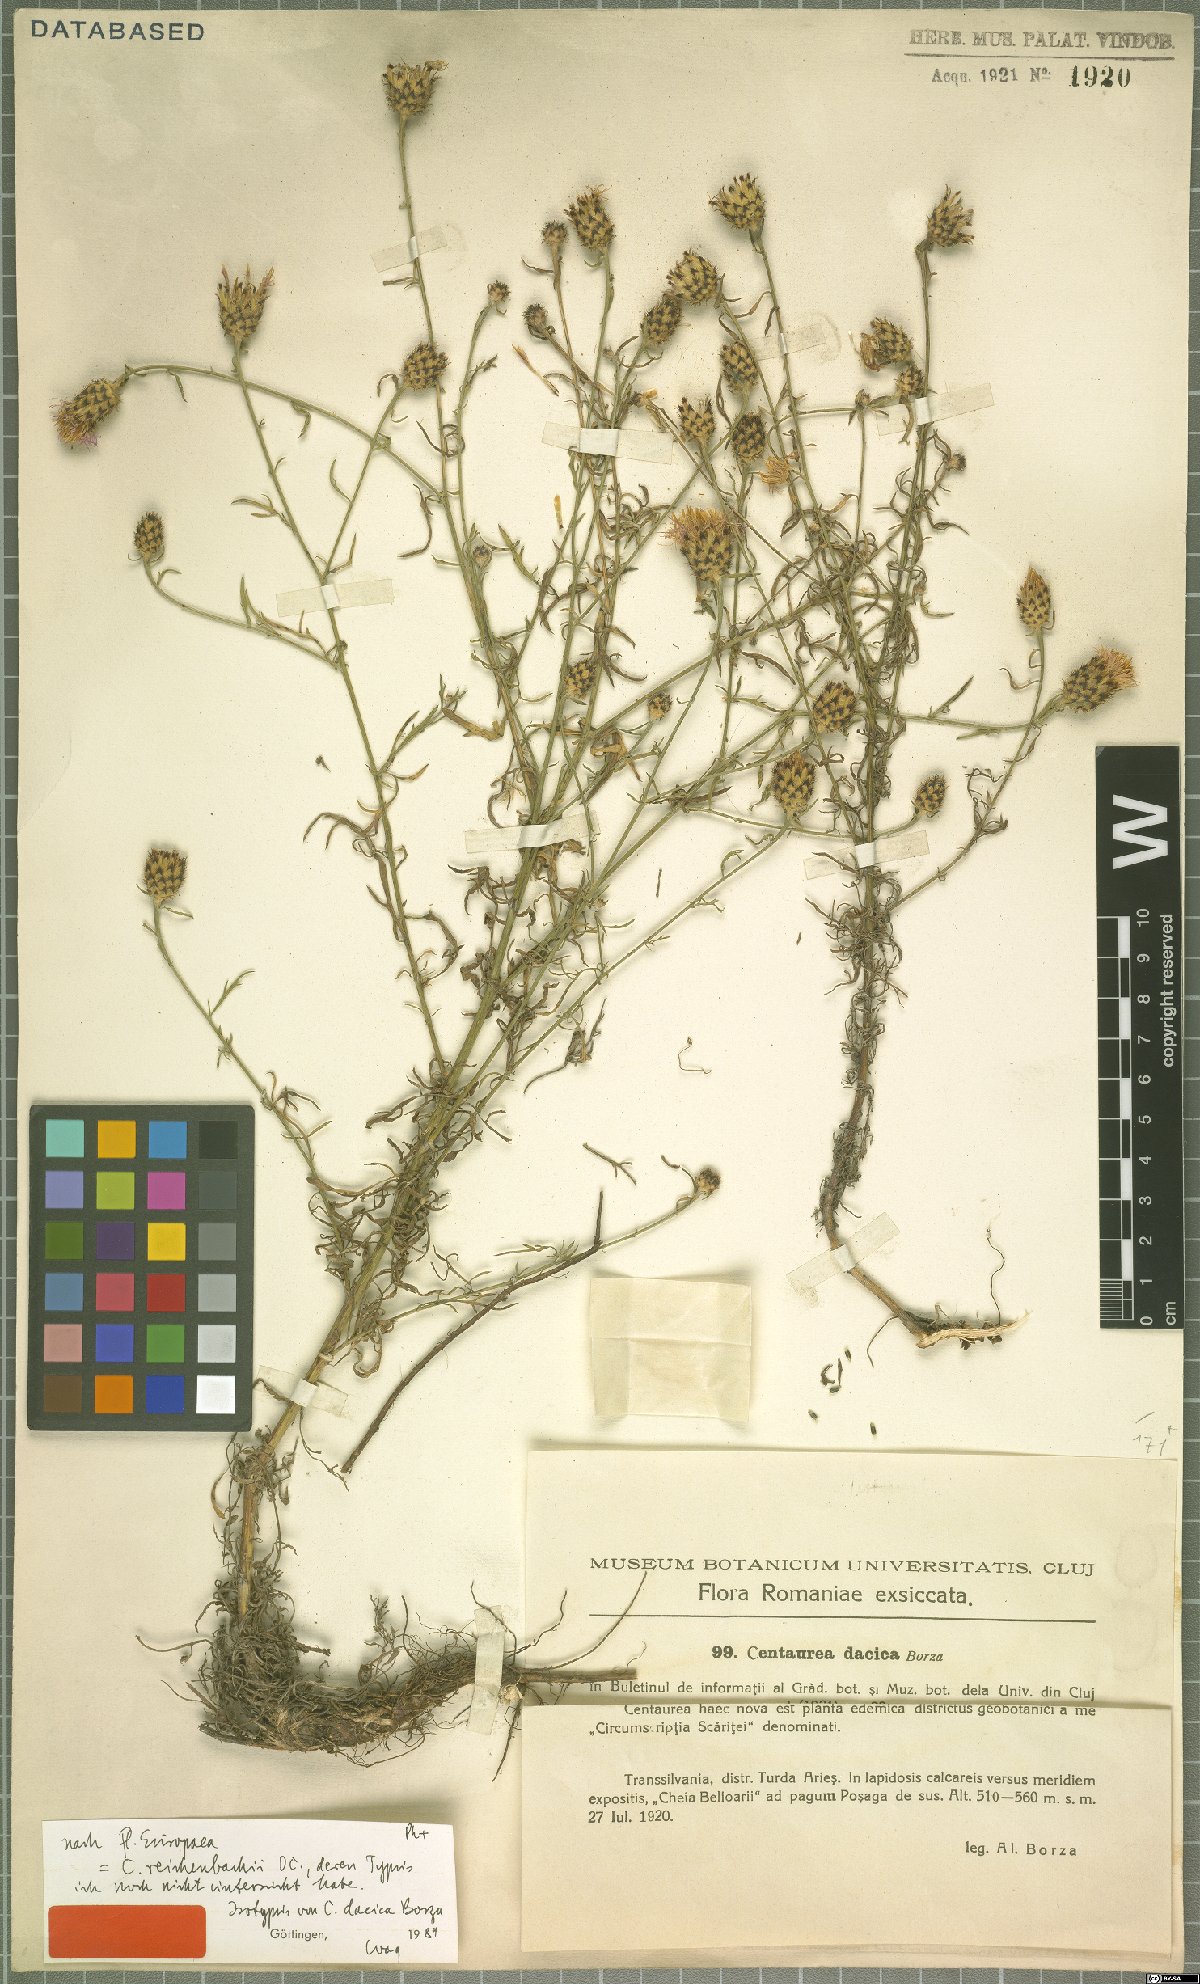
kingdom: Plantae
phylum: Tracheophyta
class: Magnoliopsida
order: Asterales
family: Asteraceae
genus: Centaurea
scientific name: Centaurea reichenbachii
